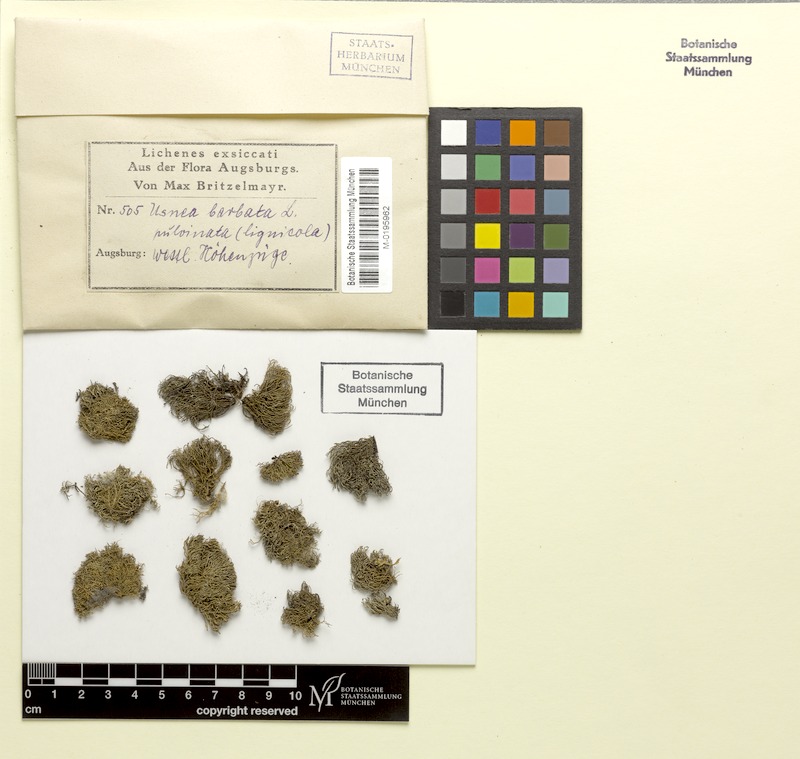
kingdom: Fungi
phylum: Ascomycota
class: Lecanoromycetes
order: Lecanorales
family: Parmeliaceae
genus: Usnea
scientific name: Usnea barbata
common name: Old man's beard lichen
